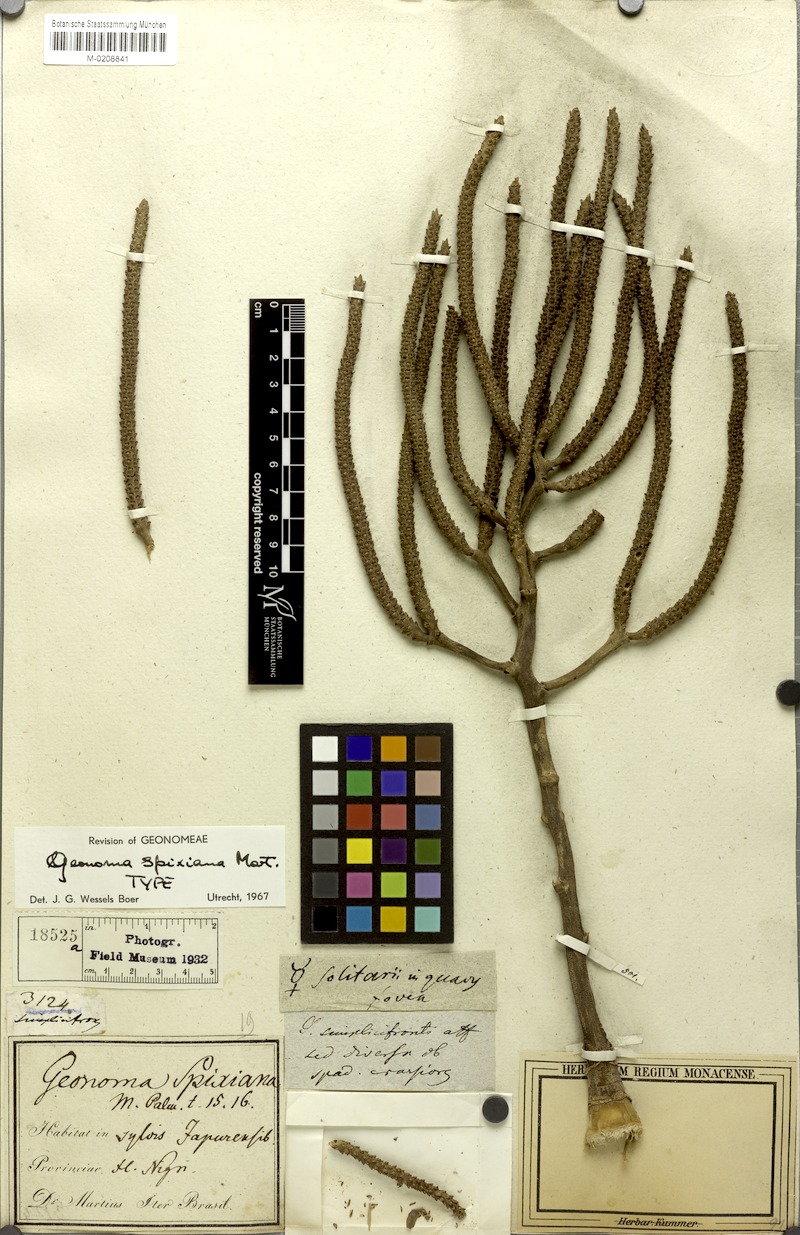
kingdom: Plantae
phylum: Tracheophyta
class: Liliopsida
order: Arecales
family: Arecaceae
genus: Geonoma
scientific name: Geonoma maxima
